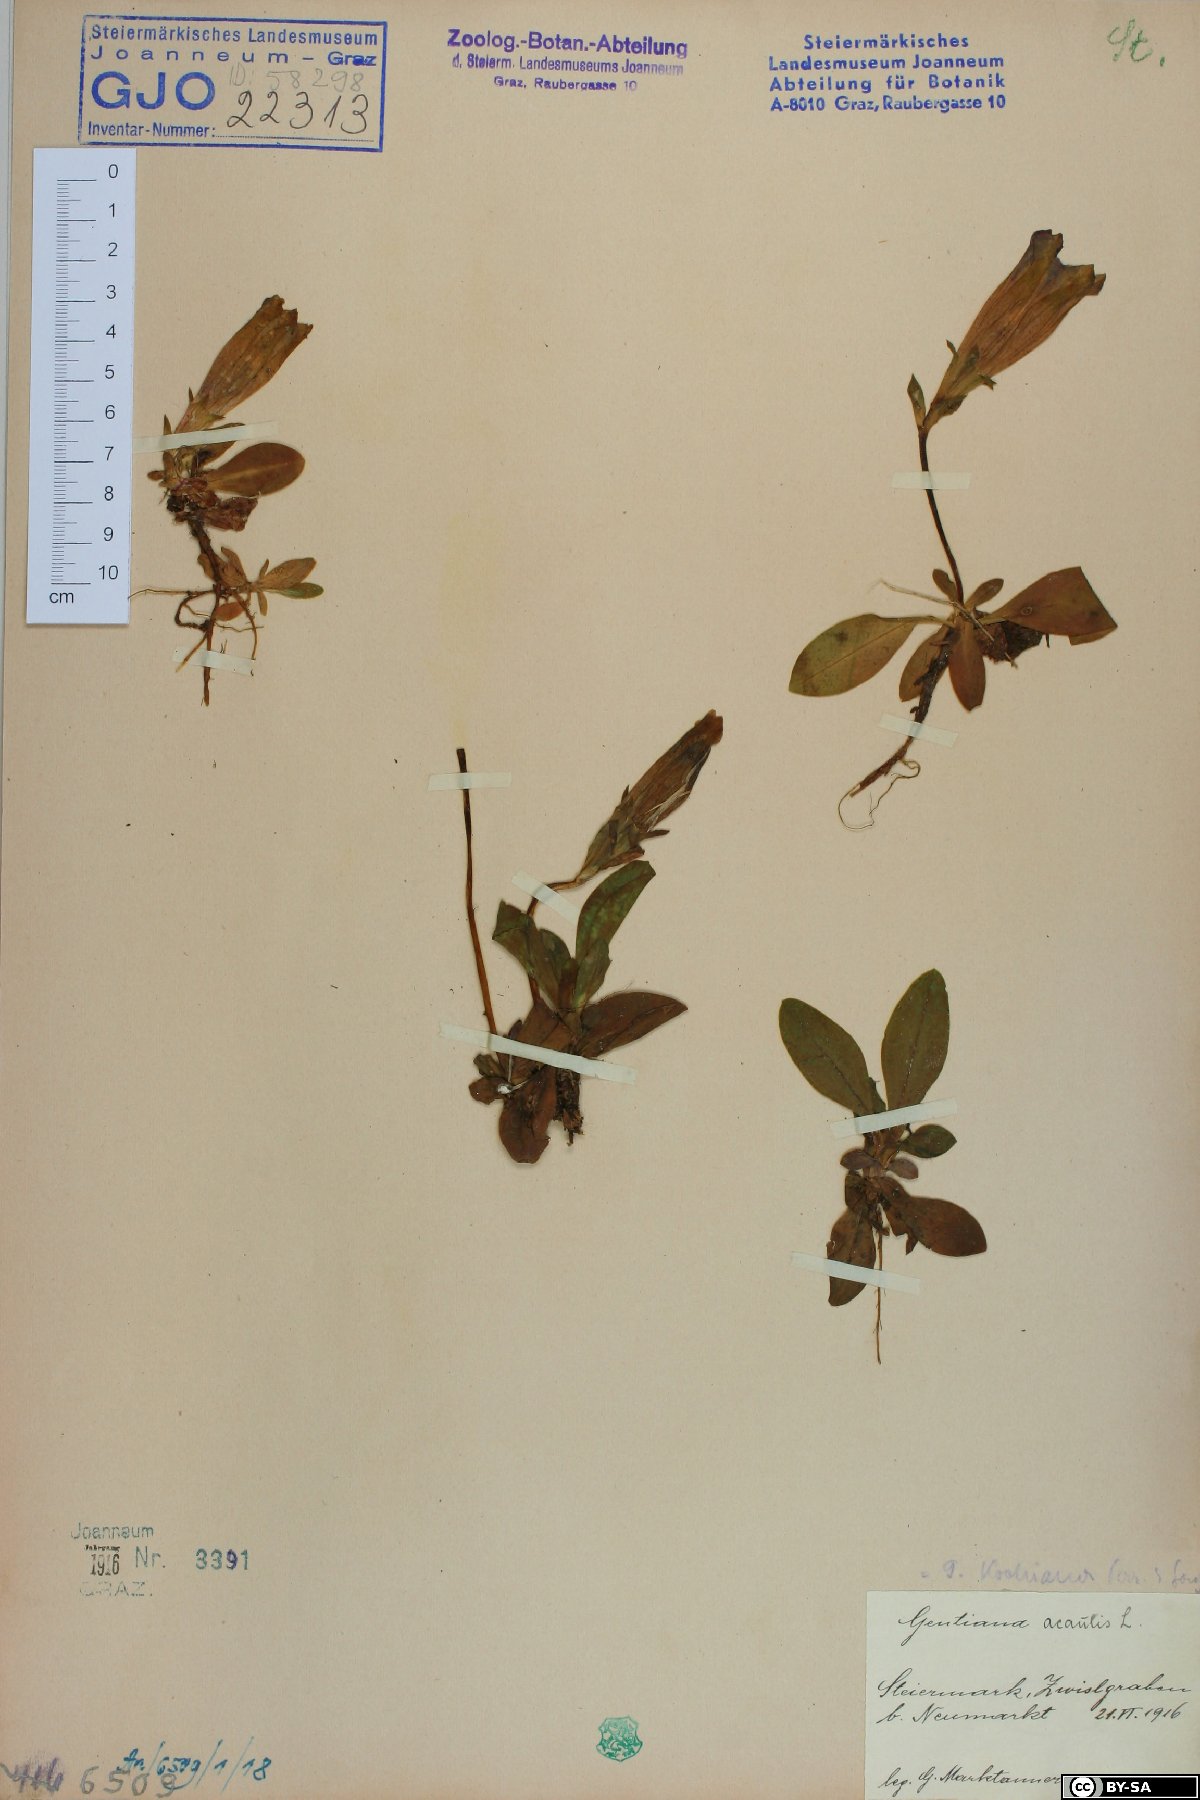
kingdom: Plantae
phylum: Tracheophyta
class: Magnoliopsida
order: Gentianales
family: Gentianaceae
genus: Gentiana
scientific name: Gentiana acaulis
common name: Trumpet gentian
